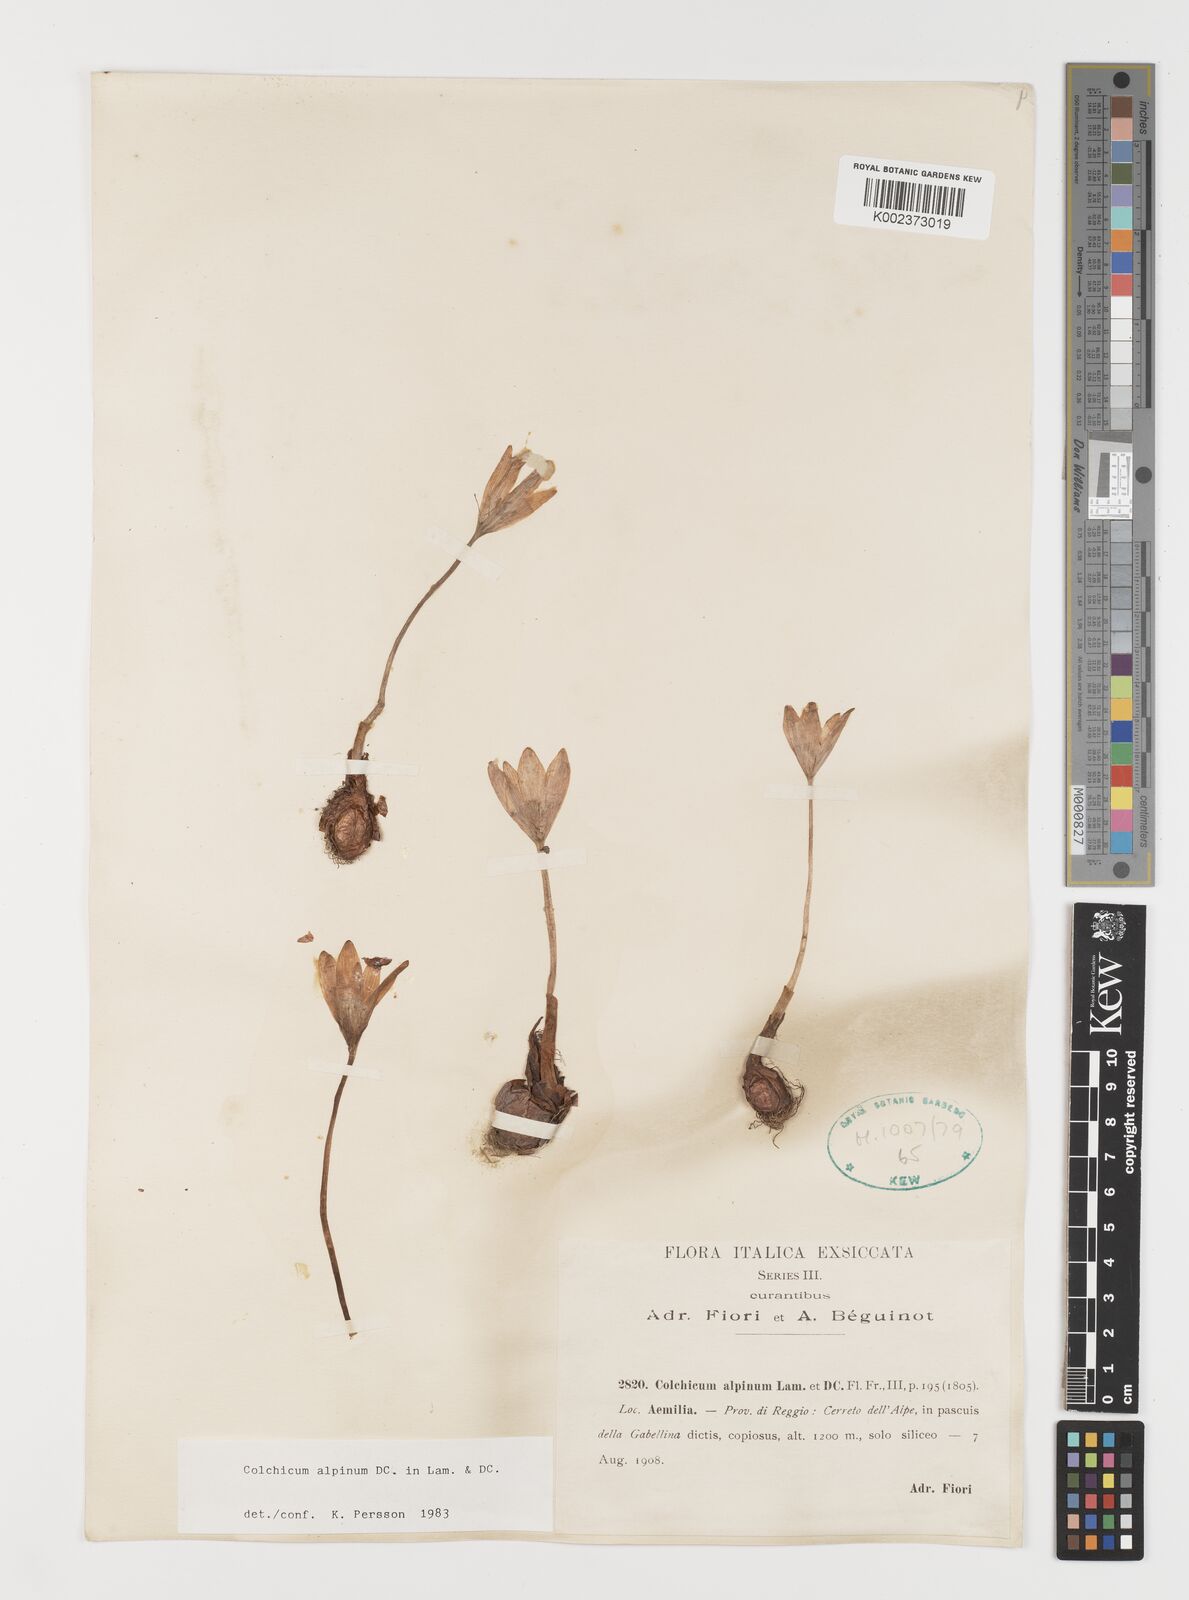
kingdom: Plantae
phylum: Tracheophyta
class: Liliopsida
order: Liliales
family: Colchicaceae
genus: Colchicum
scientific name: Colchicum alpinum
